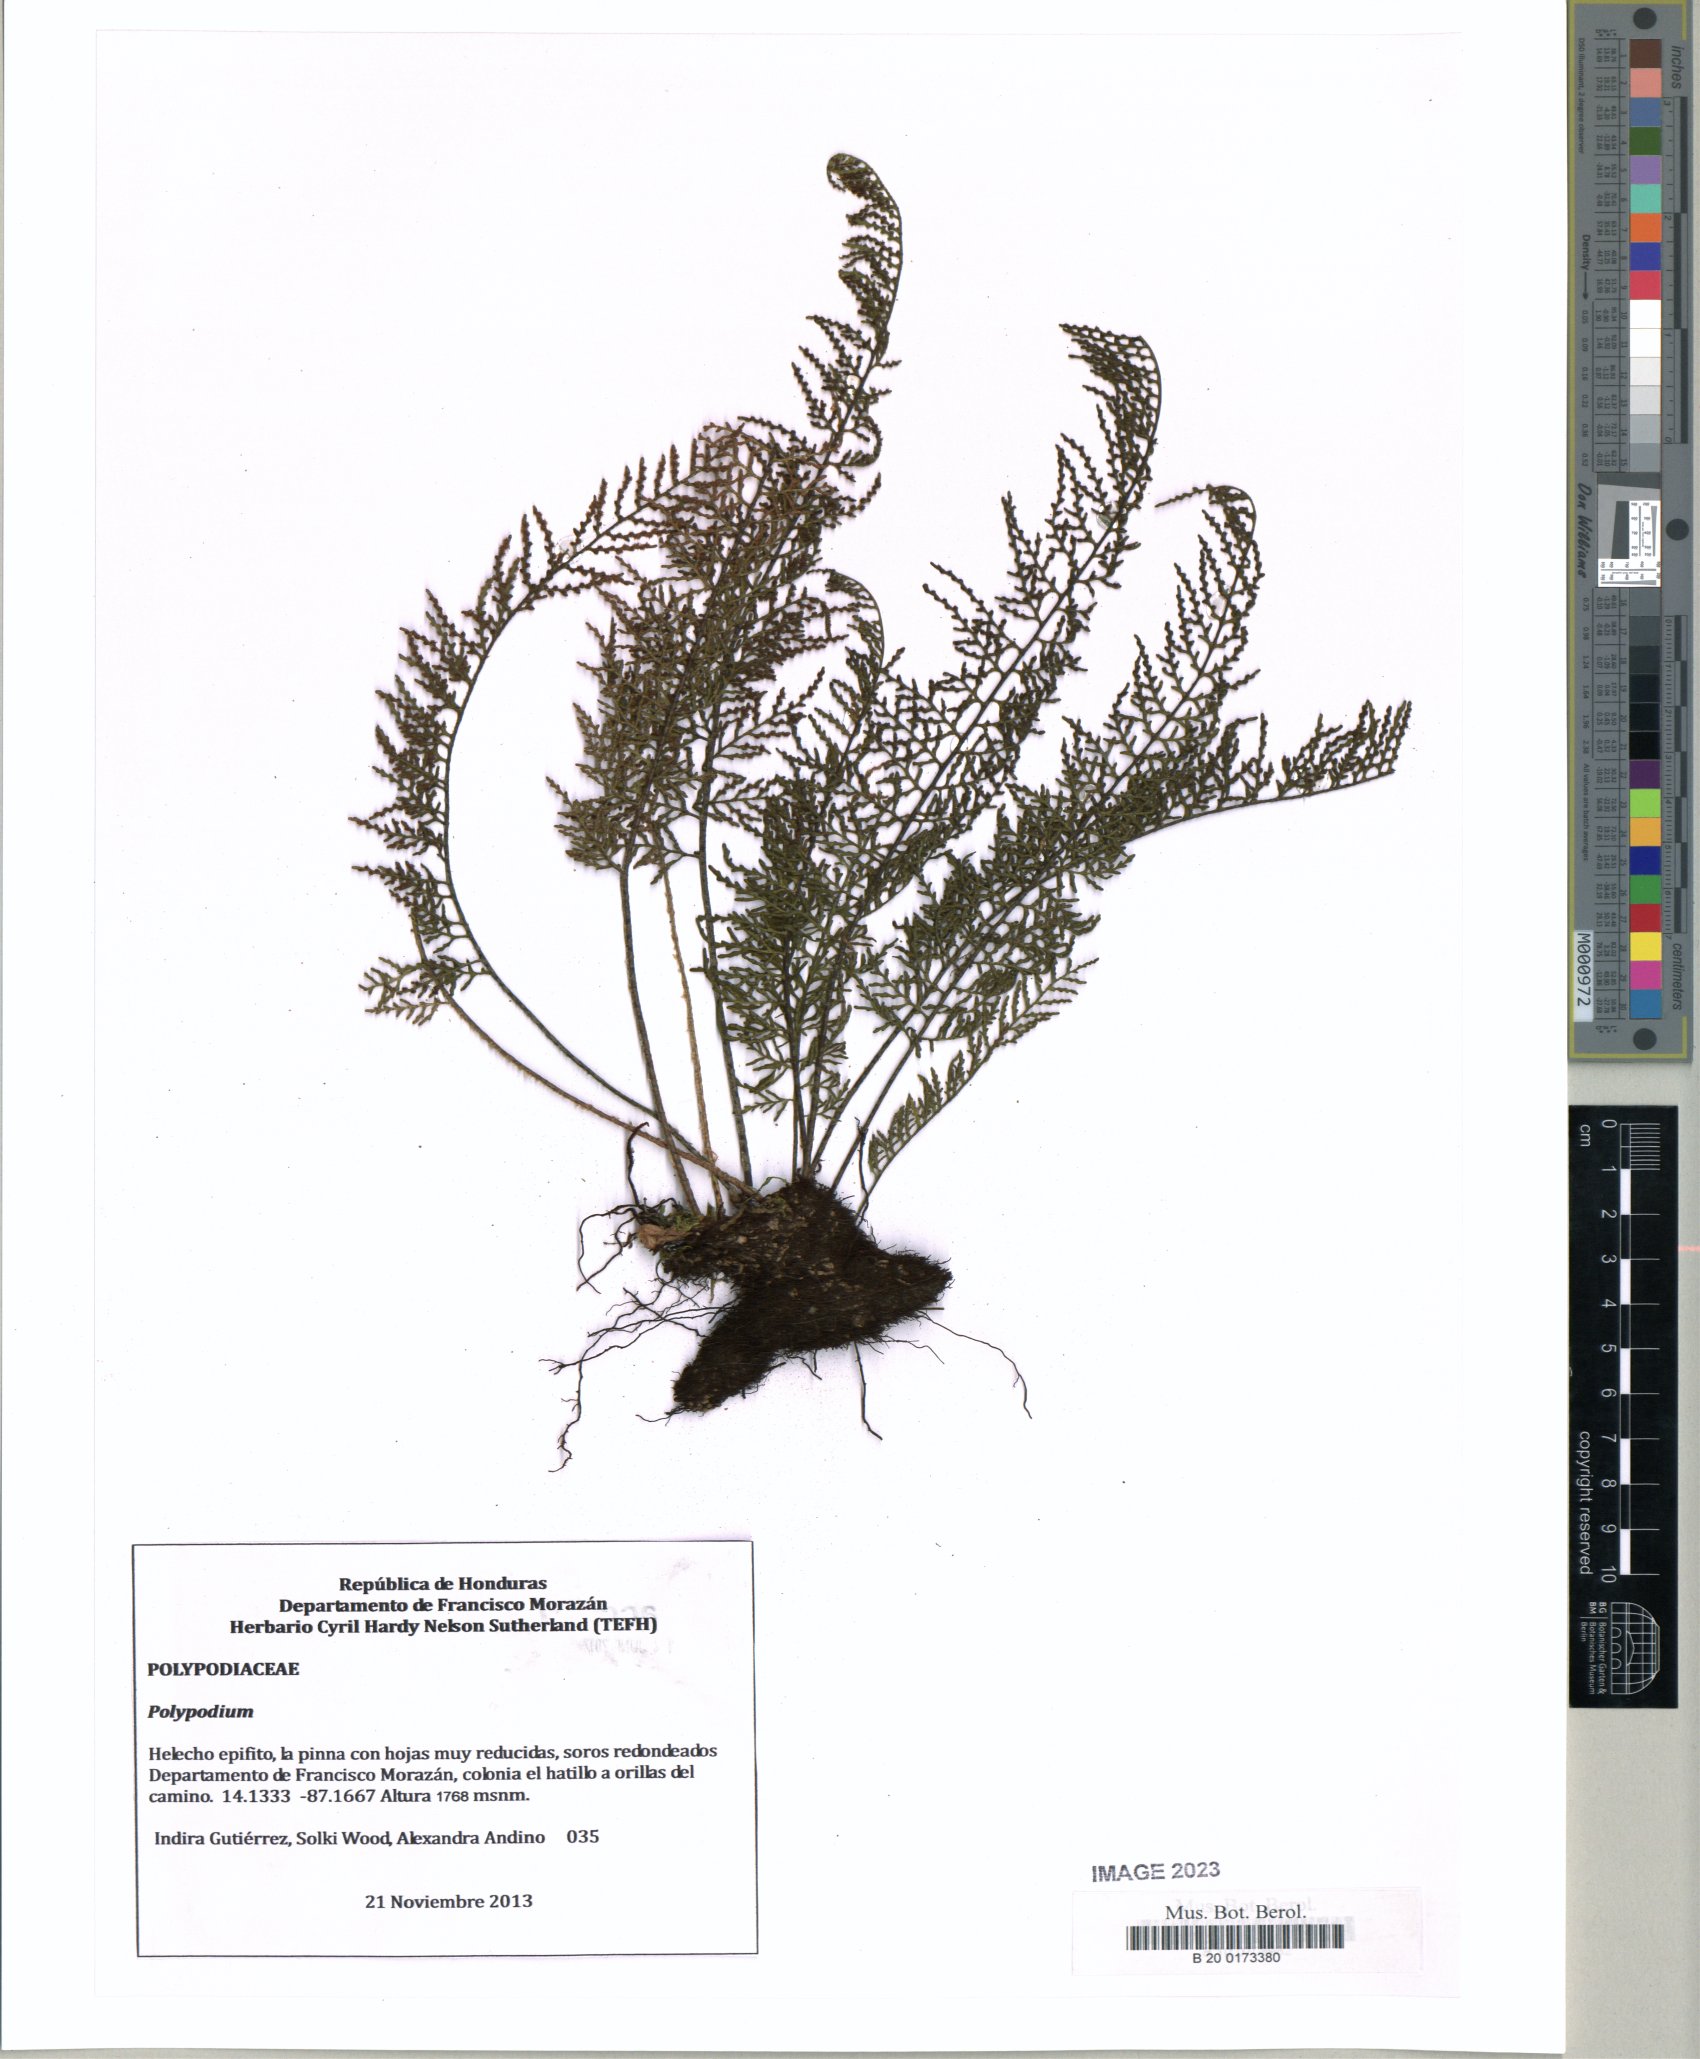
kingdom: Plantae
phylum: Tracheophyta
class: Polypodiopsida
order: Polypodiales
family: Polypodiaceae
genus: Polypodium
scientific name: Polypodium
